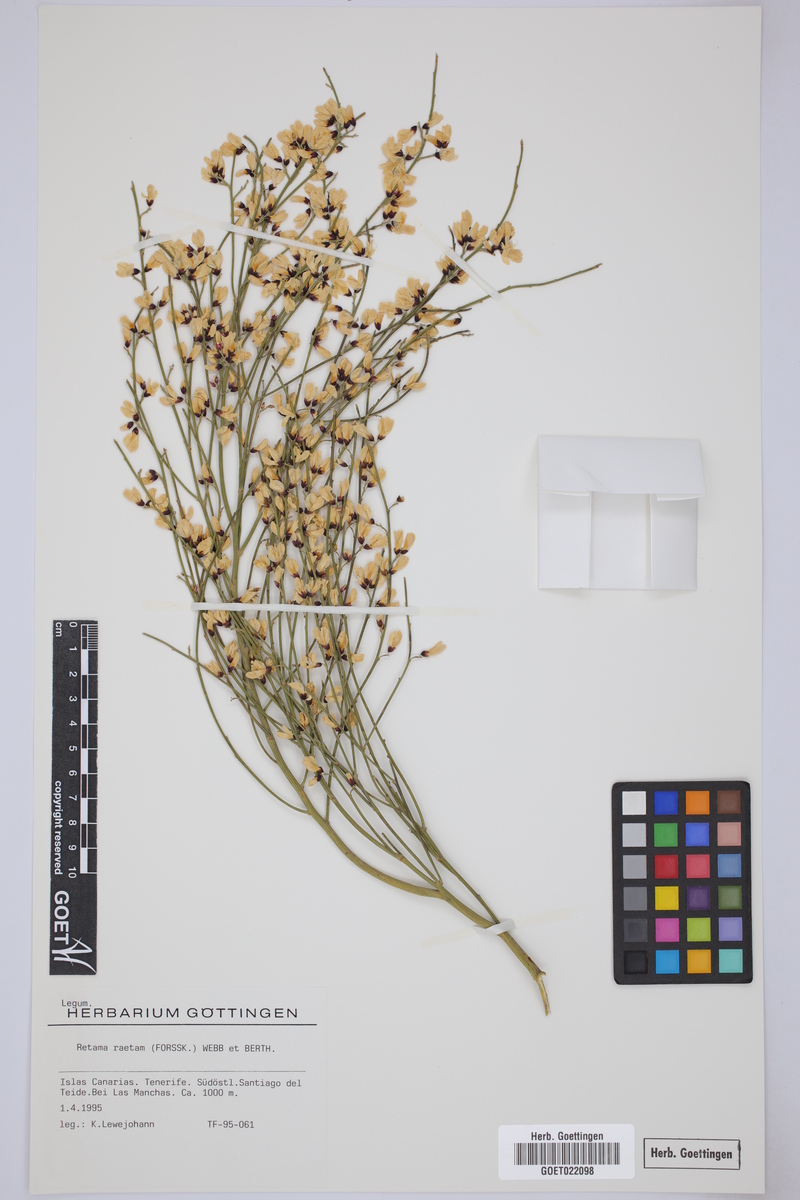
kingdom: Plantae
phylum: Tracheophyta
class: Magnoliopsida
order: Fabales
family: Fabaceae
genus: Retama
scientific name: Retama raetam
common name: Retem
